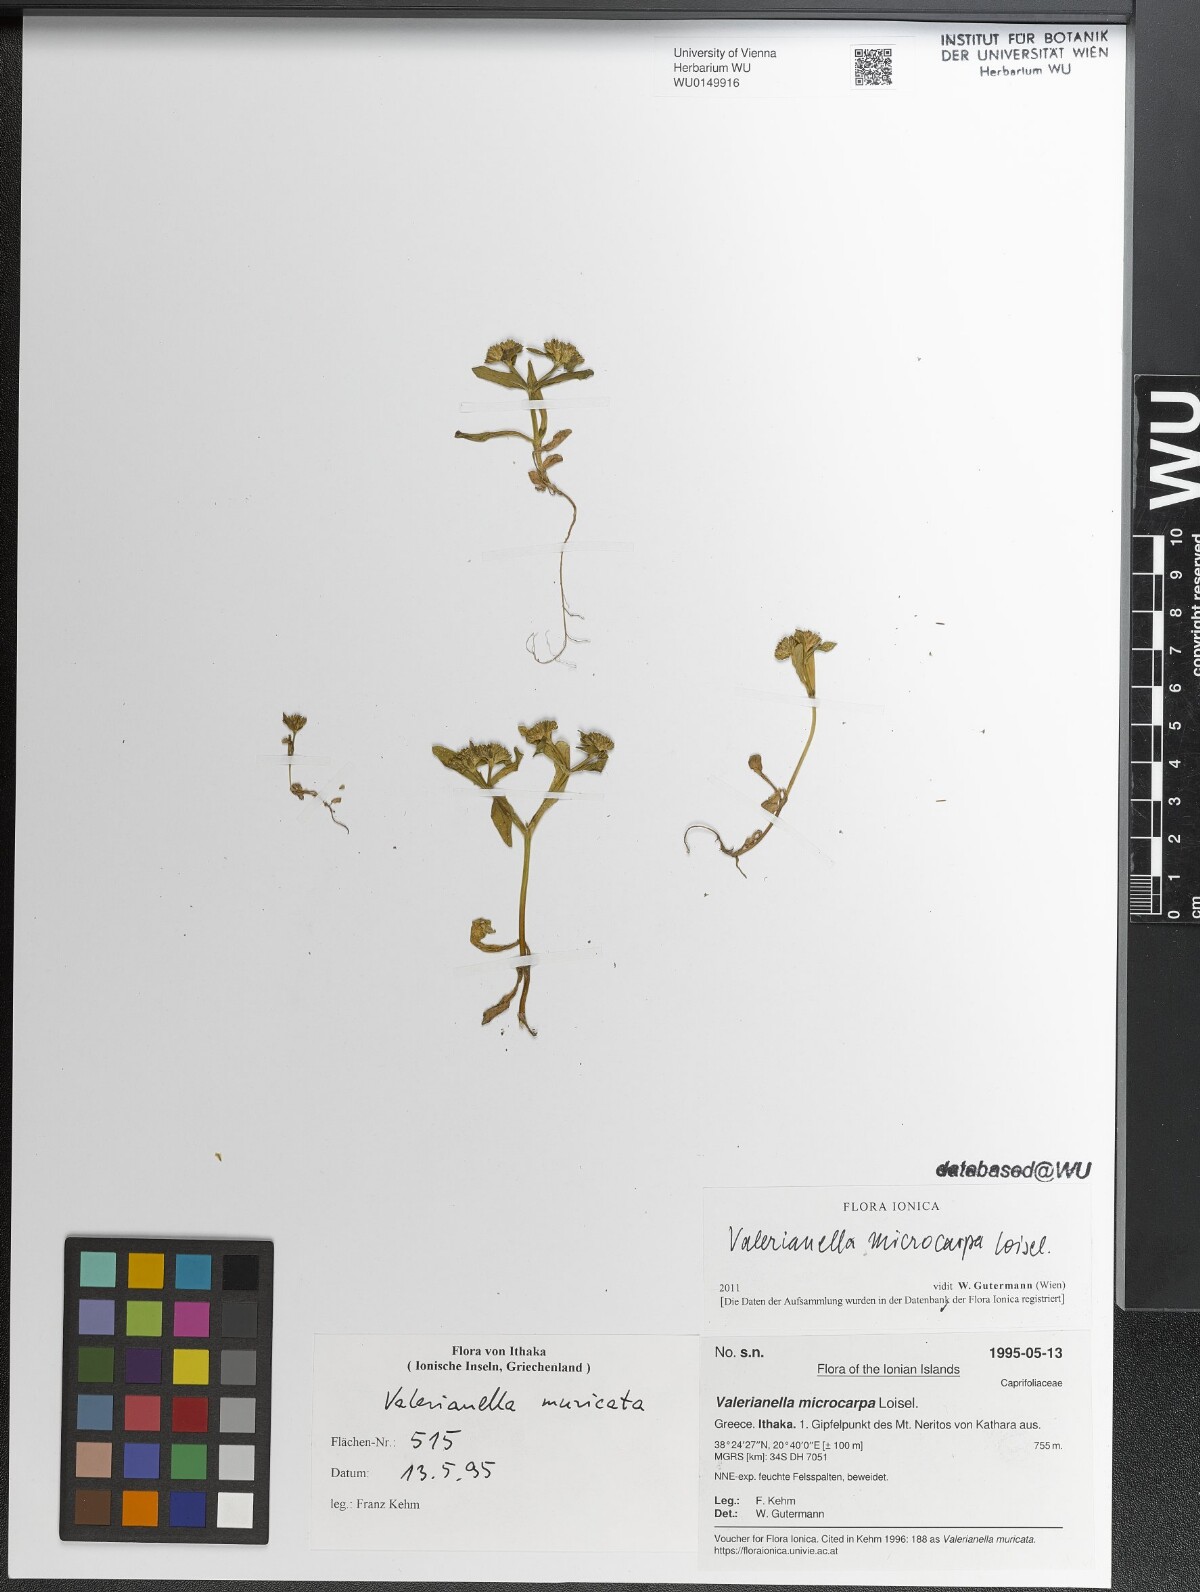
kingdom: Plantae
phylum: Tracheophyta
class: Magnoliopsida
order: Dipsacales
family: Caprifoliaceae
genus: Valerianella
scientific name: Valerianella microcarpa
